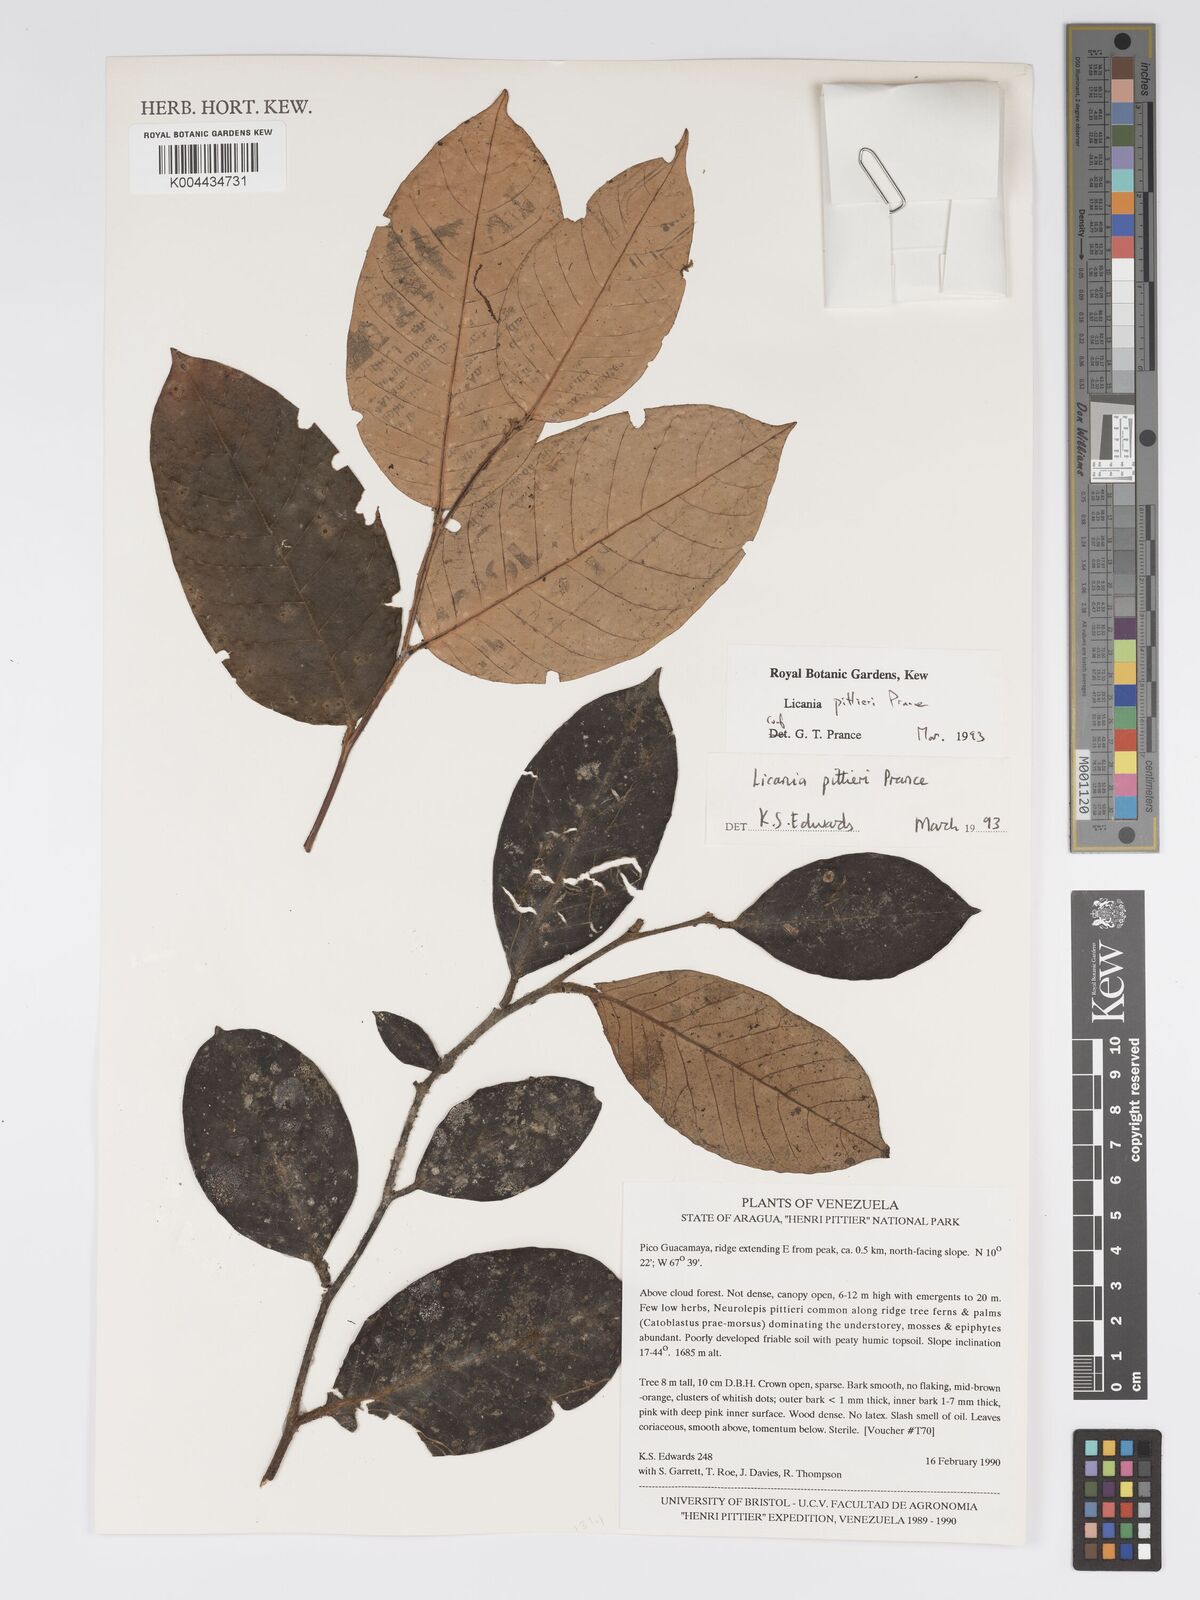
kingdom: Plantae
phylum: Tracheophyta
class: Magnoliopsida
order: Malpighiales
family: Chrysobalanaceae
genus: Licania
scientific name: Licania pittieri
